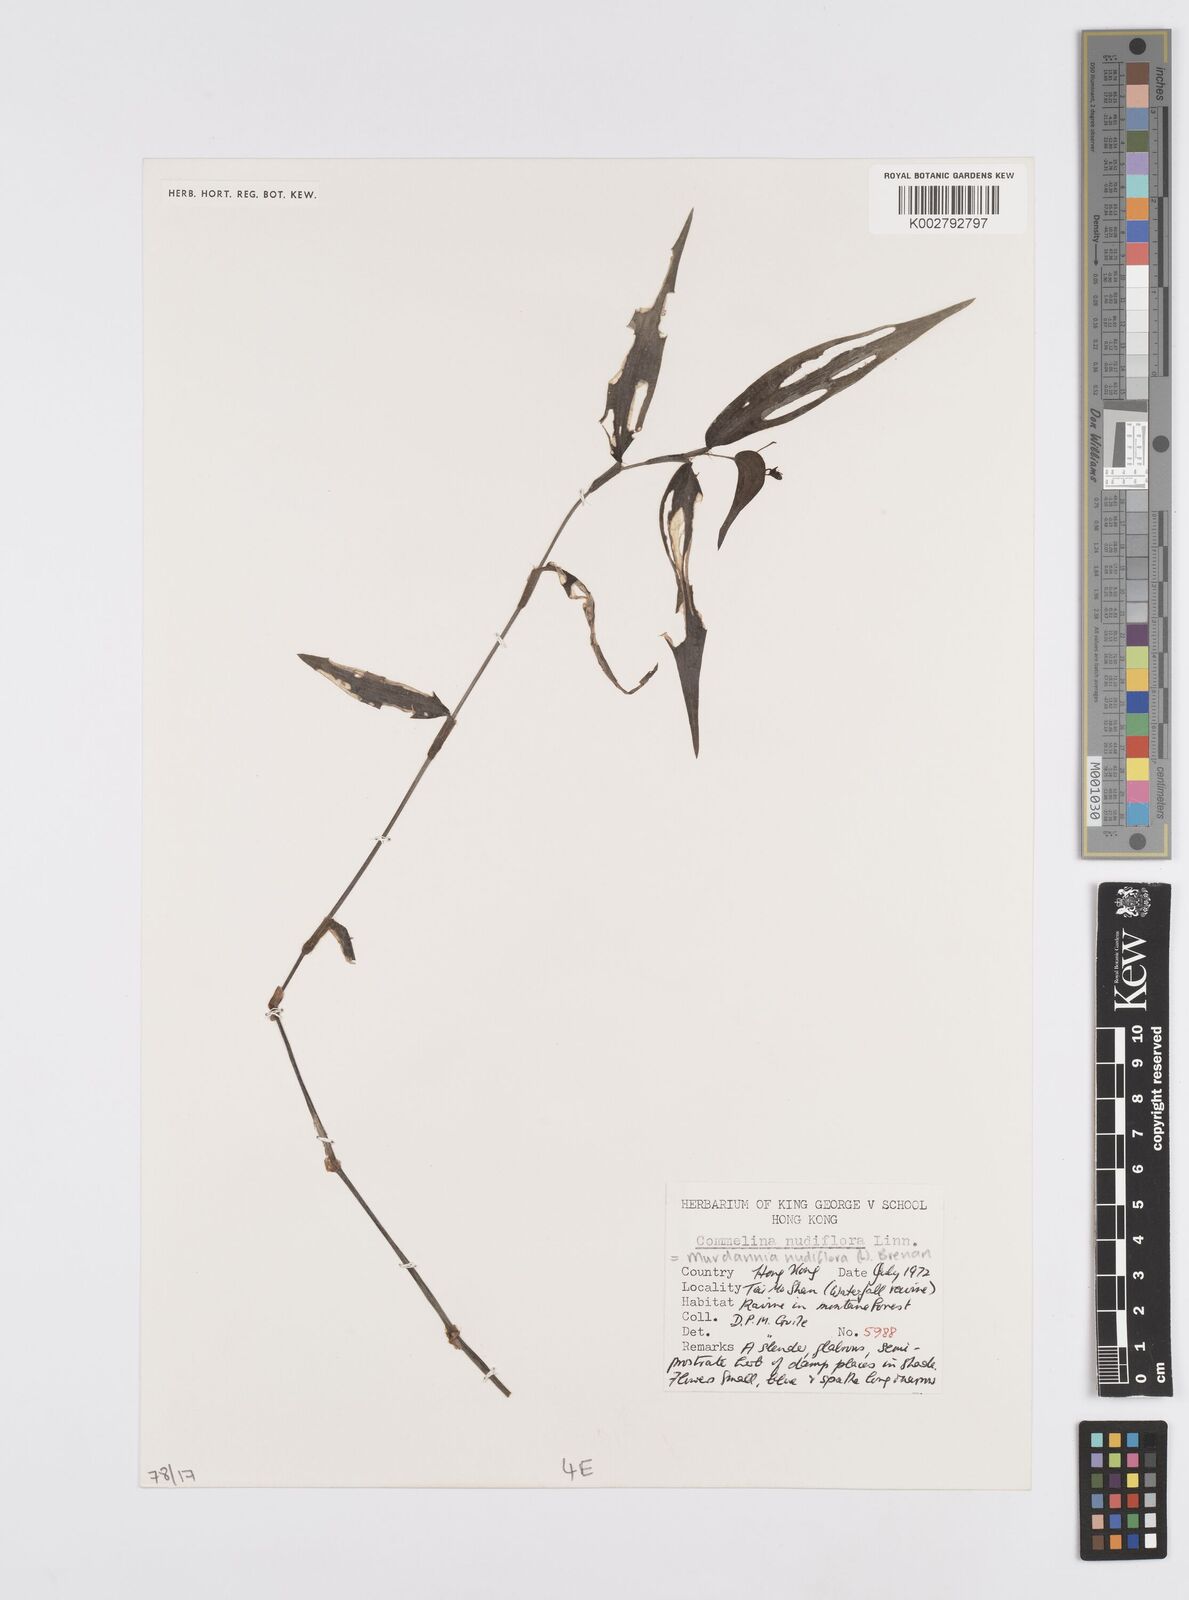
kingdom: Plantae
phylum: Tracheophyta
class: Liliopsida
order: Commelinales
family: Commelinaceae
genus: Murdannia
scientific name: Murdannia nudiflora
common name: Nakedstem dewflower
